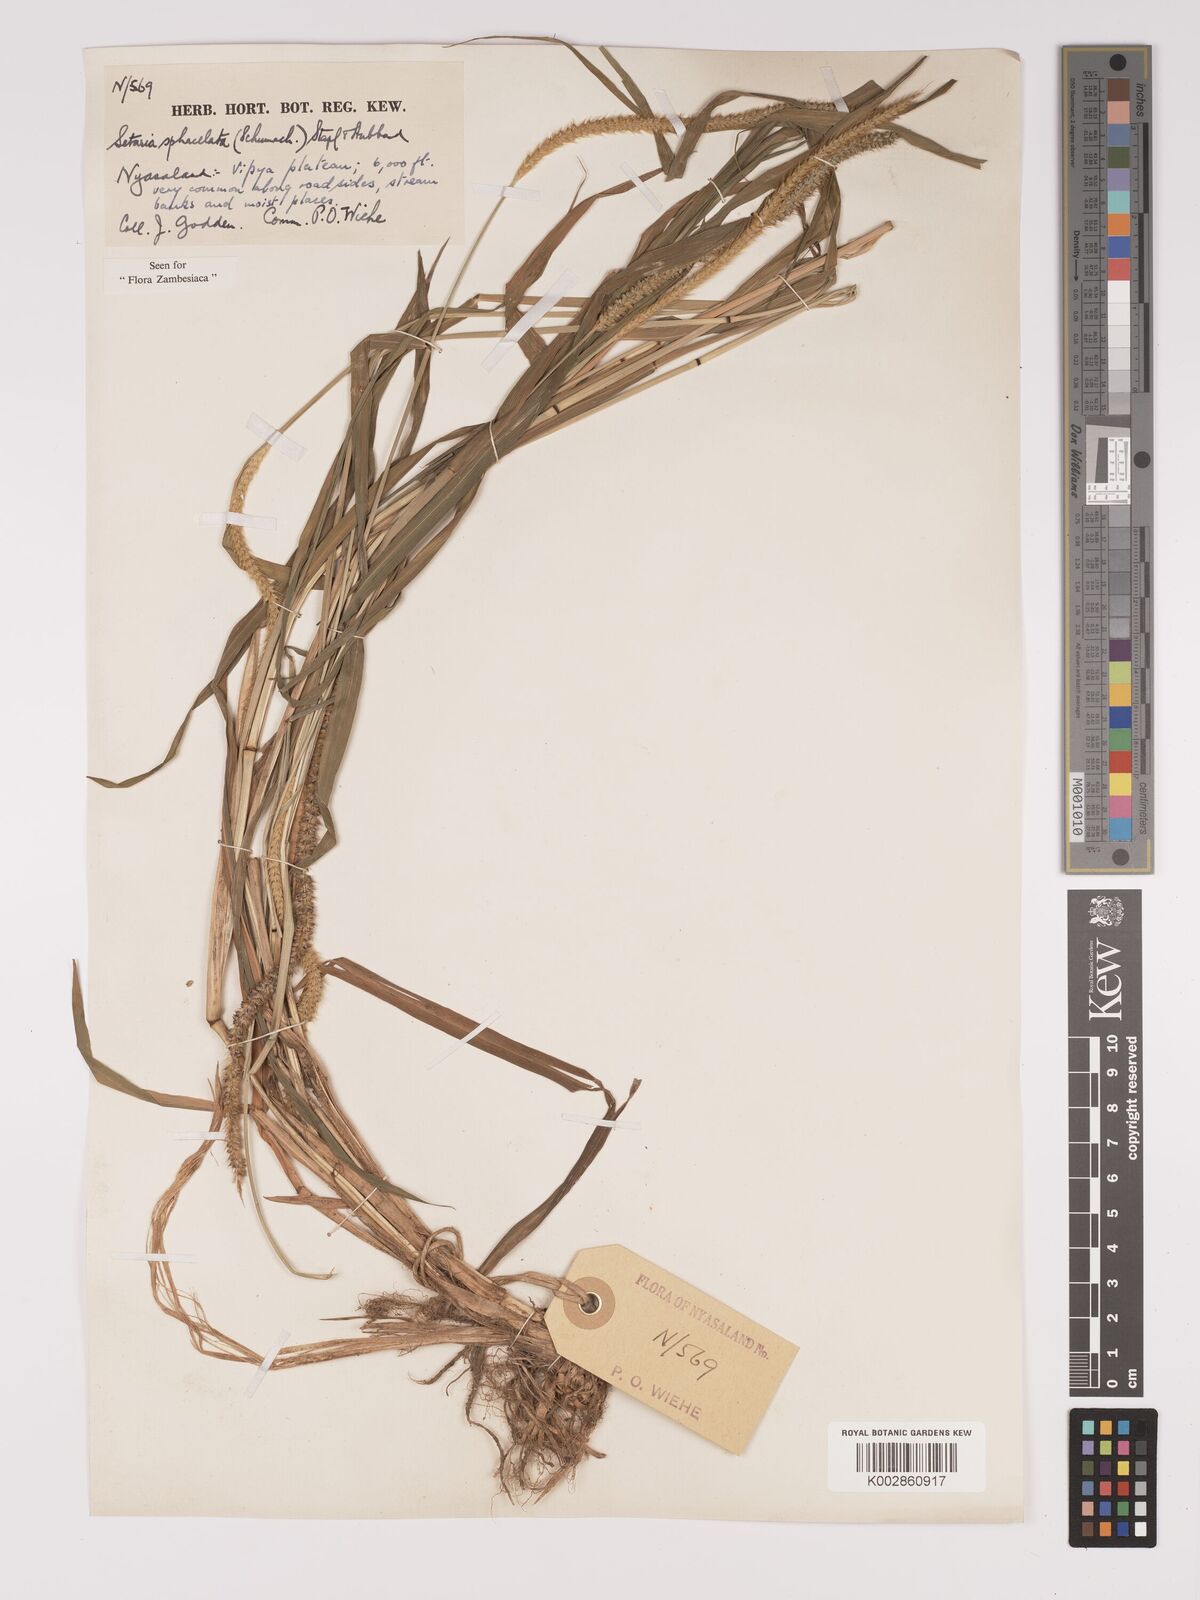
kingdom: Plantae
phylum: Tracheophyta
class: Liliopsida
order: Poales
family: Poaceae
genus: Setaria
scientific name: Setaria sphacelata
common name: African bristlegrass
